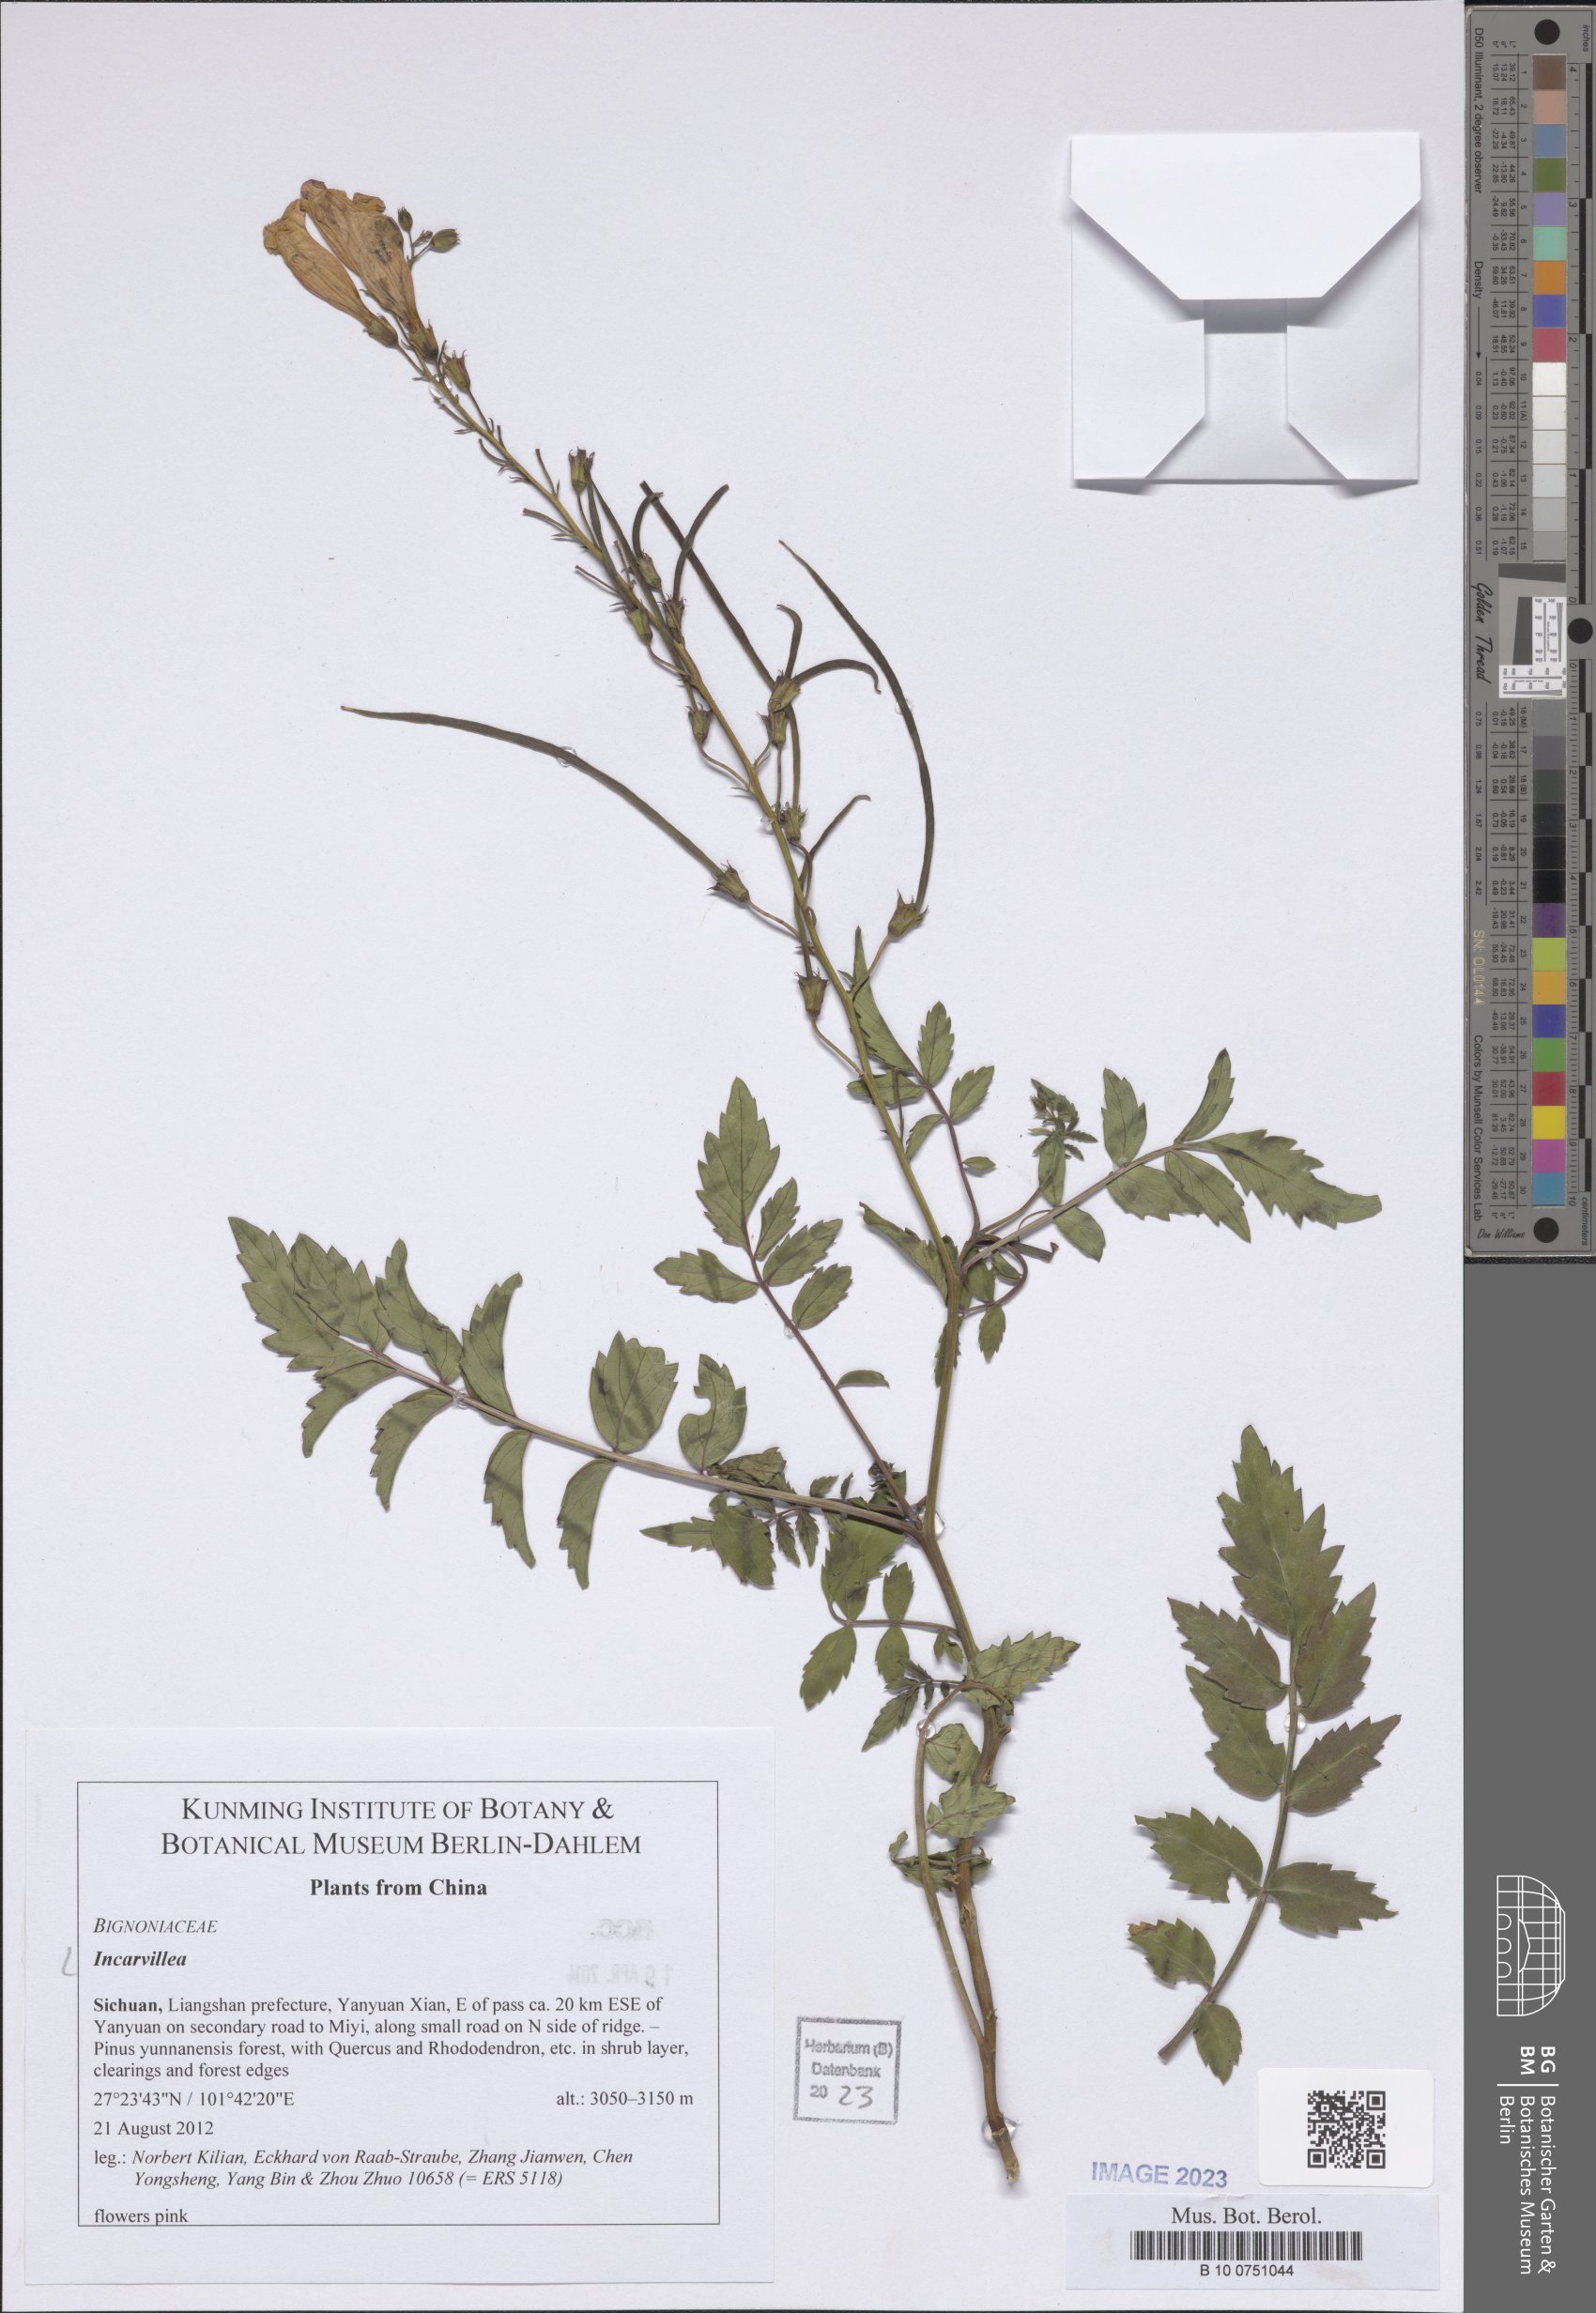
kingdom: Plantae
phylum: Tracheophyta
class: Magnoliopsida
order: Lamiales
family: Bignoniaceae
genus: Incarvillea
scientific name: Incarvillea
